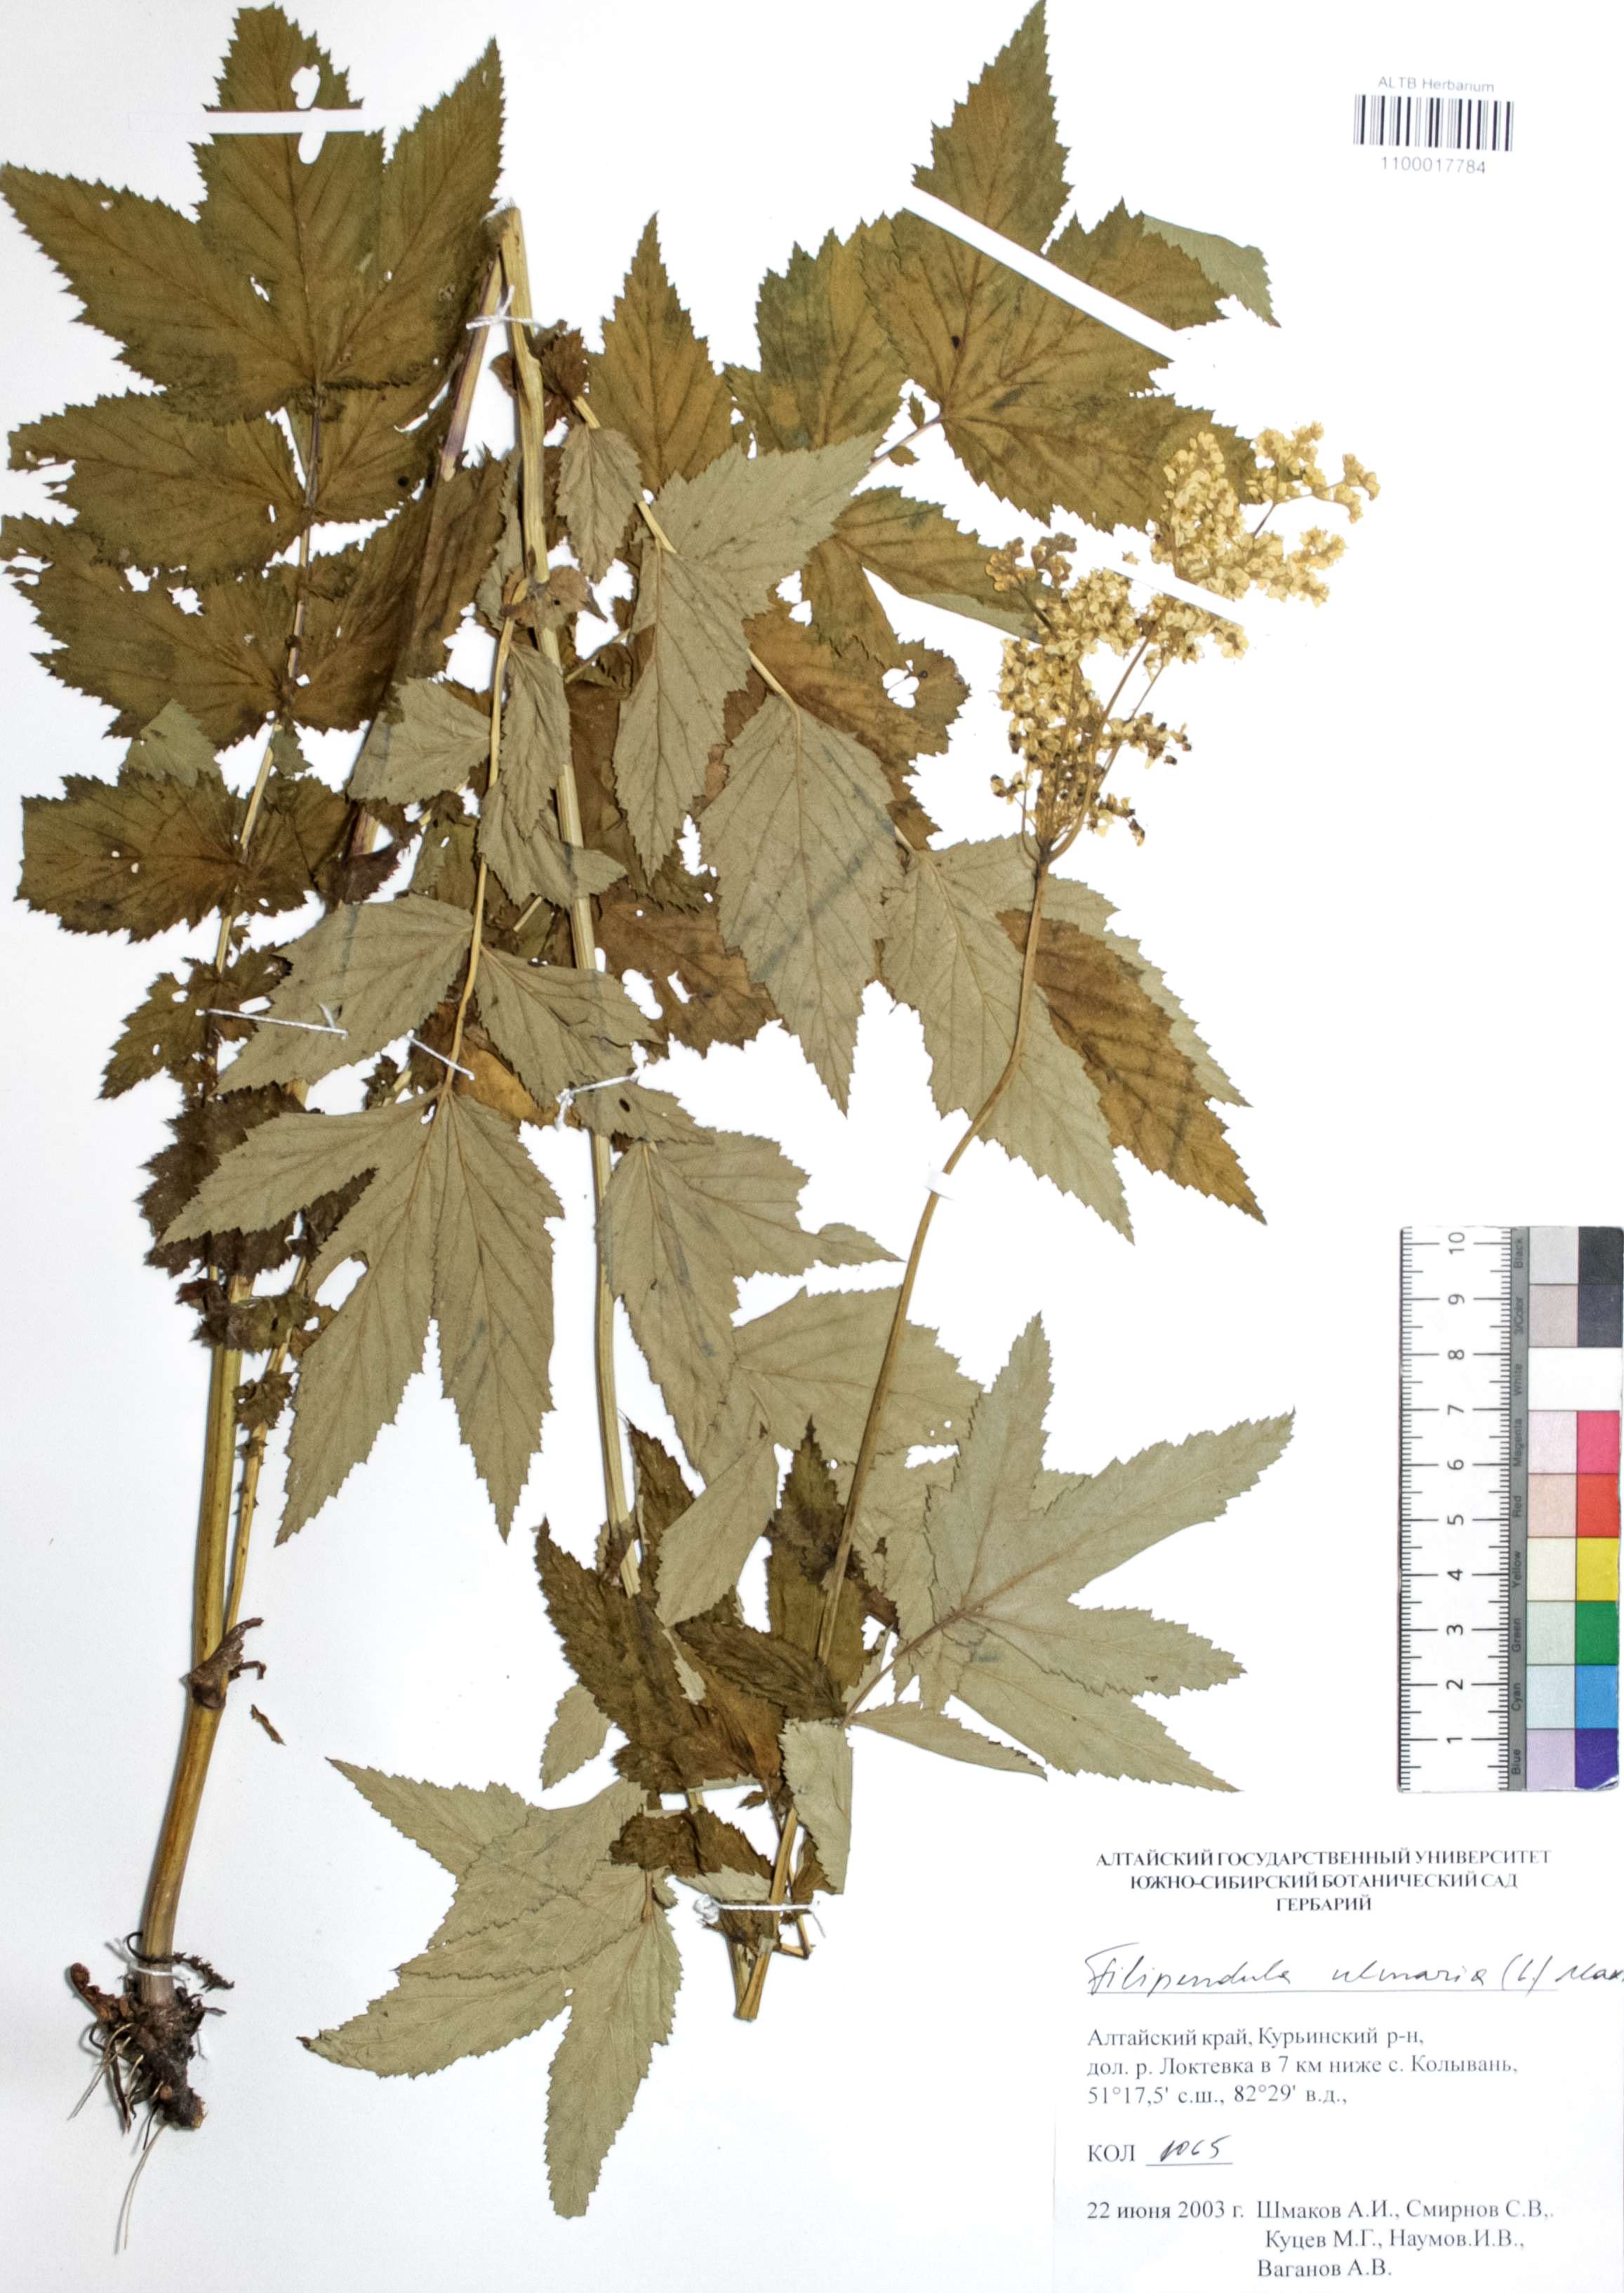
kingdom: Plantae
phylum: Tracheophyta
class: Magnoliopsida
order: Rosales
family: Rosaceae
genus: Filipendula
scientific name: Filipendula ulmaria
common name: Meadowsweet
